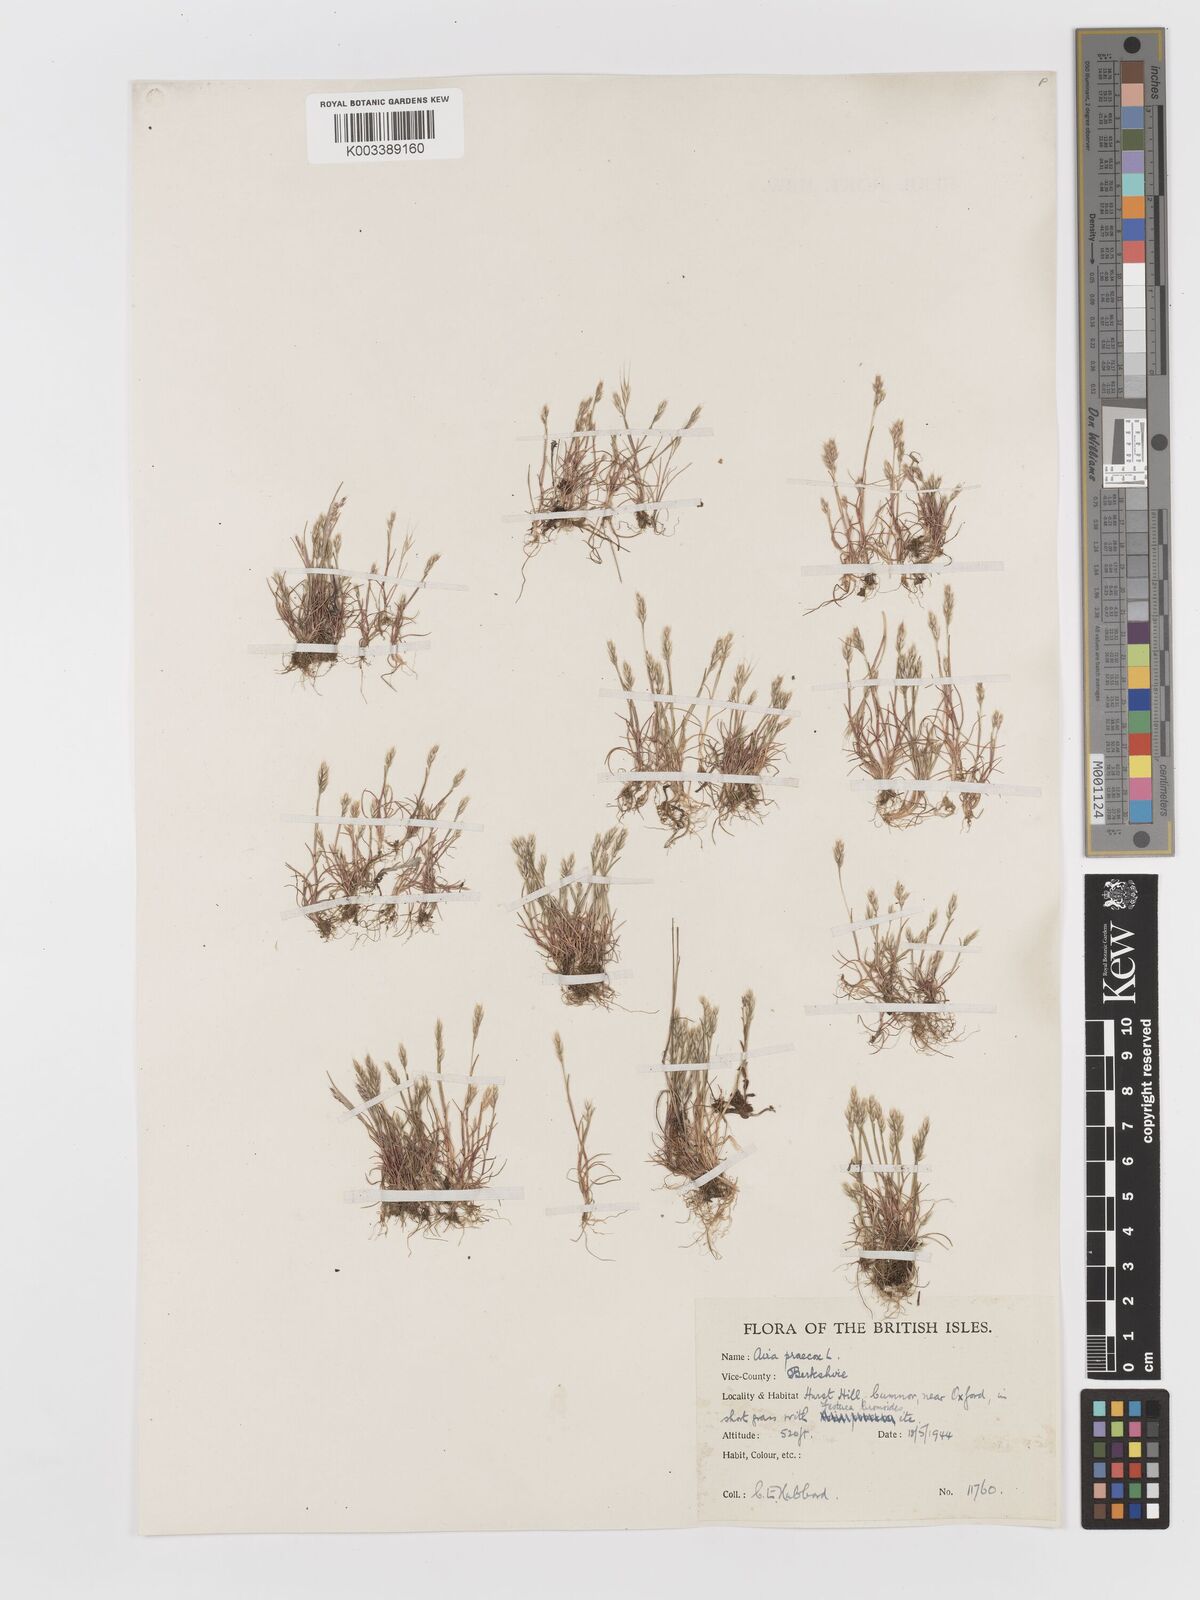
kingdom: Plantae
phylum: Tracheophyta
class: Liliopsida
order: Poales
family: Poaceae
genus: Aira
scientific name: Aira praecox
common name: Early hair-grass
